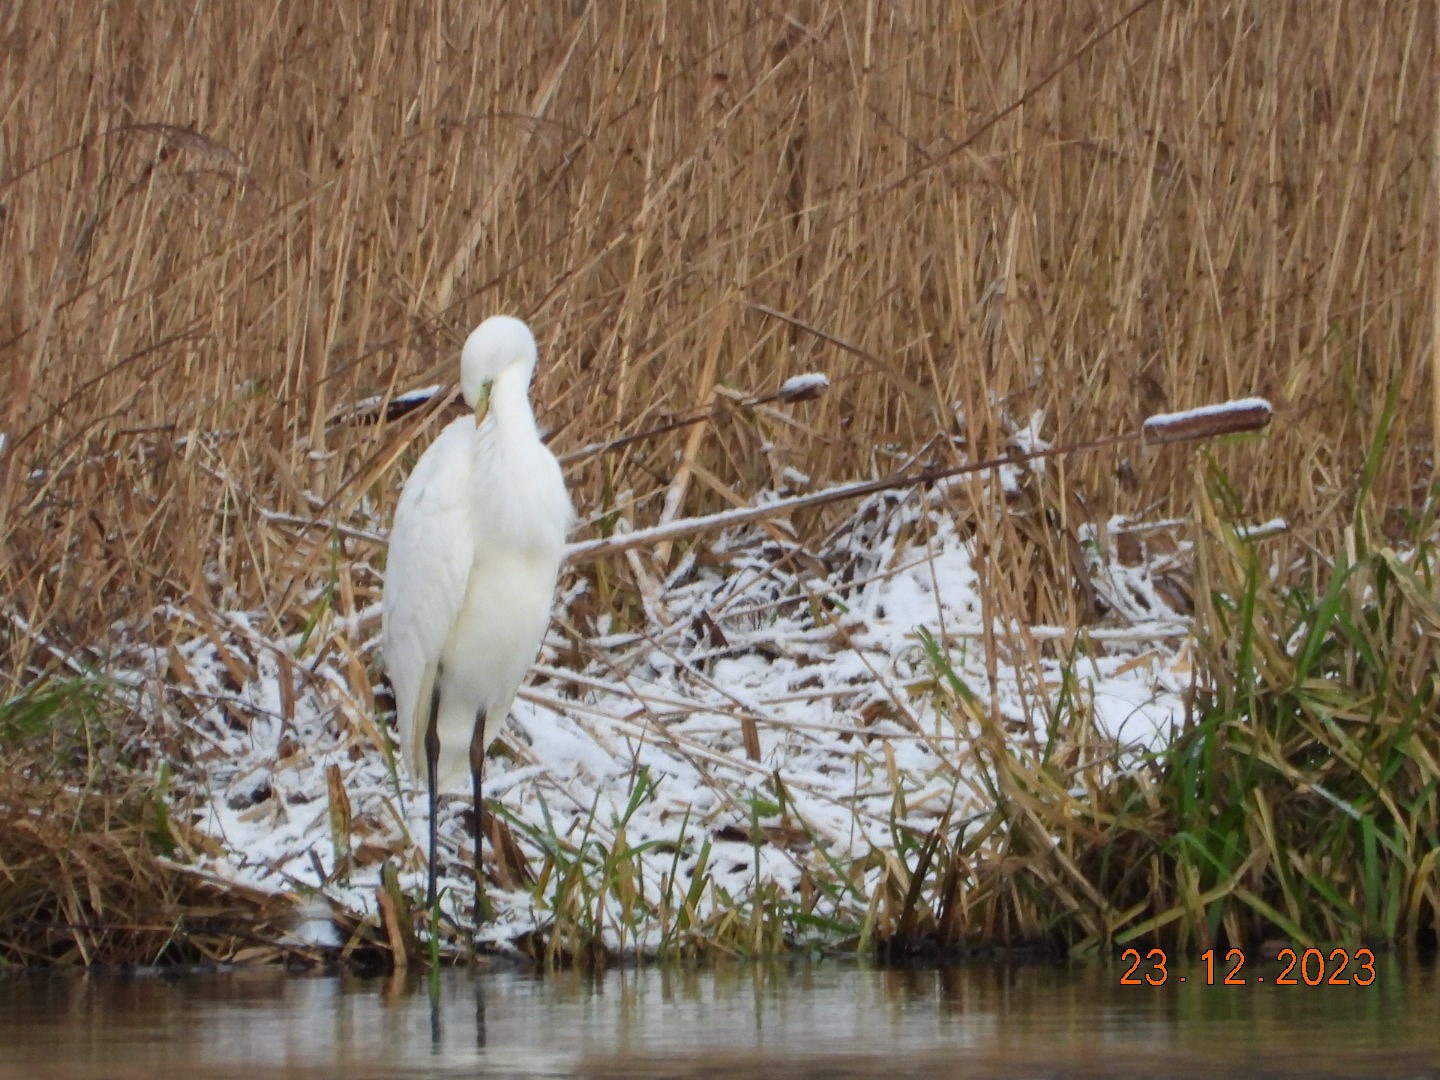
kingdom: Animalia
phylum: Chordata
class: Aves
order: Pelecaniformes
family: Ardeidae
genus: Ardea
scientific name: Ardea alba
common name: Sølvhejre
